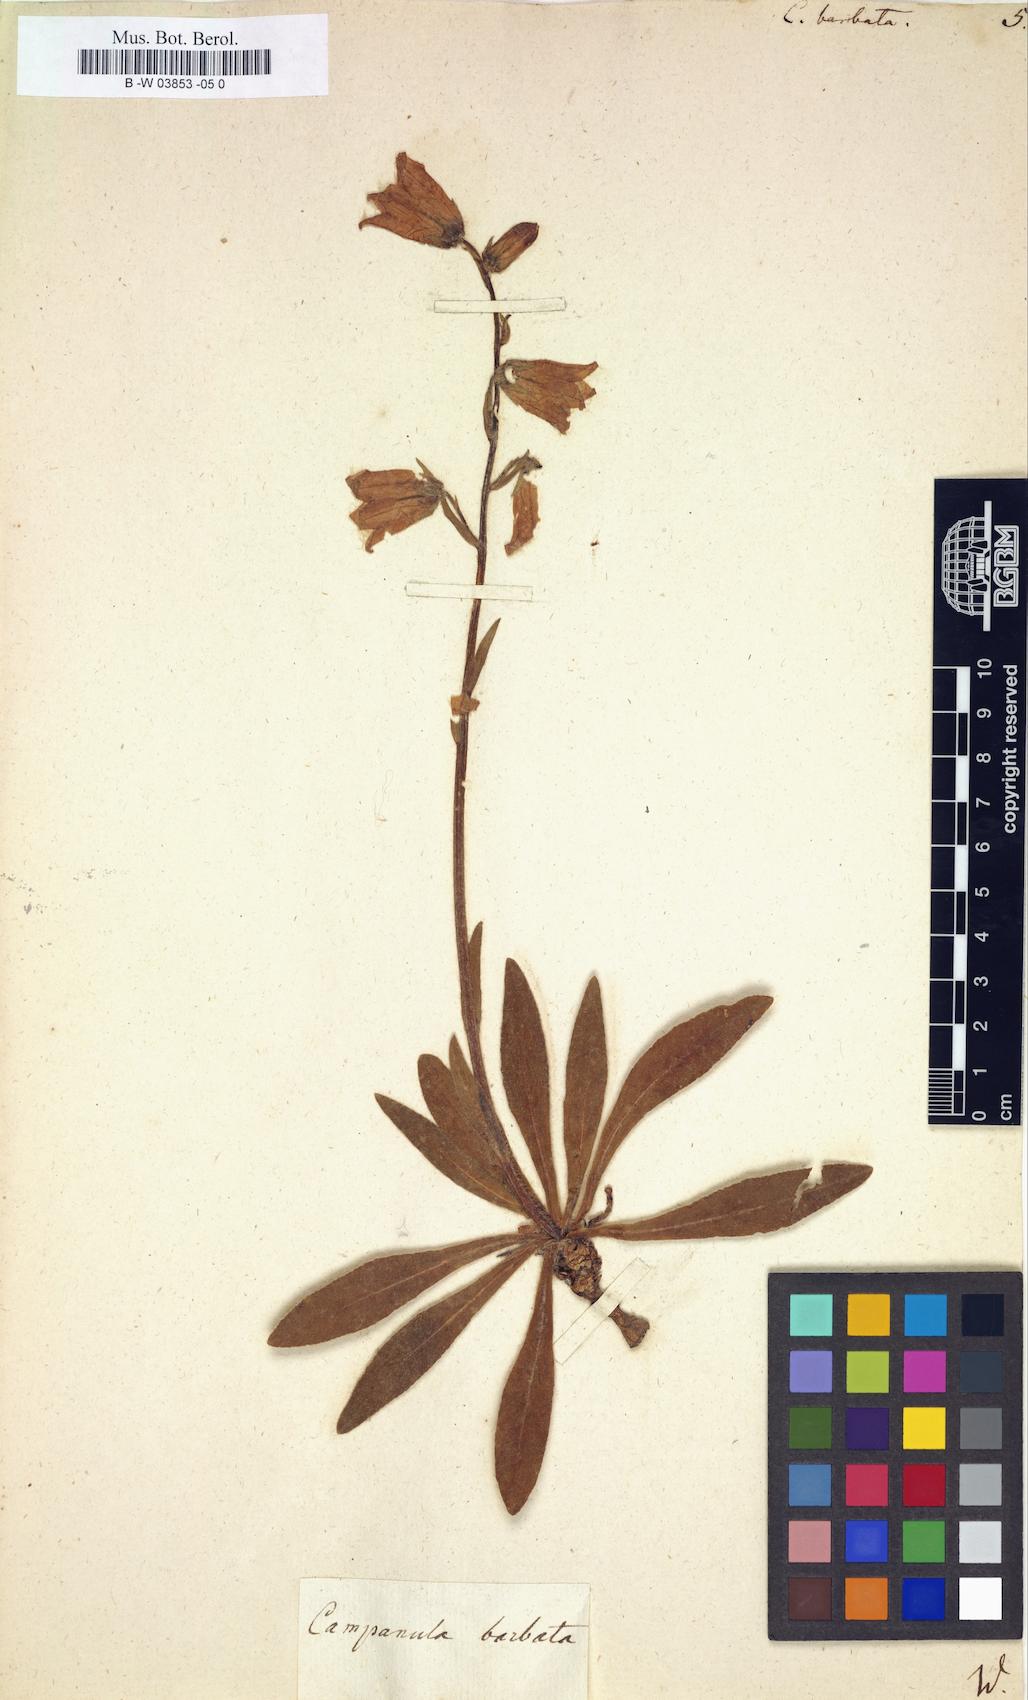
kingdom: Plantae
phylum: Tracheophyta
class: Magnoliopsida
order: Asterales
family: Campanulaceae
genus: Campanula
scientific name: Campanula barbata
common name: Bearded bellflower
